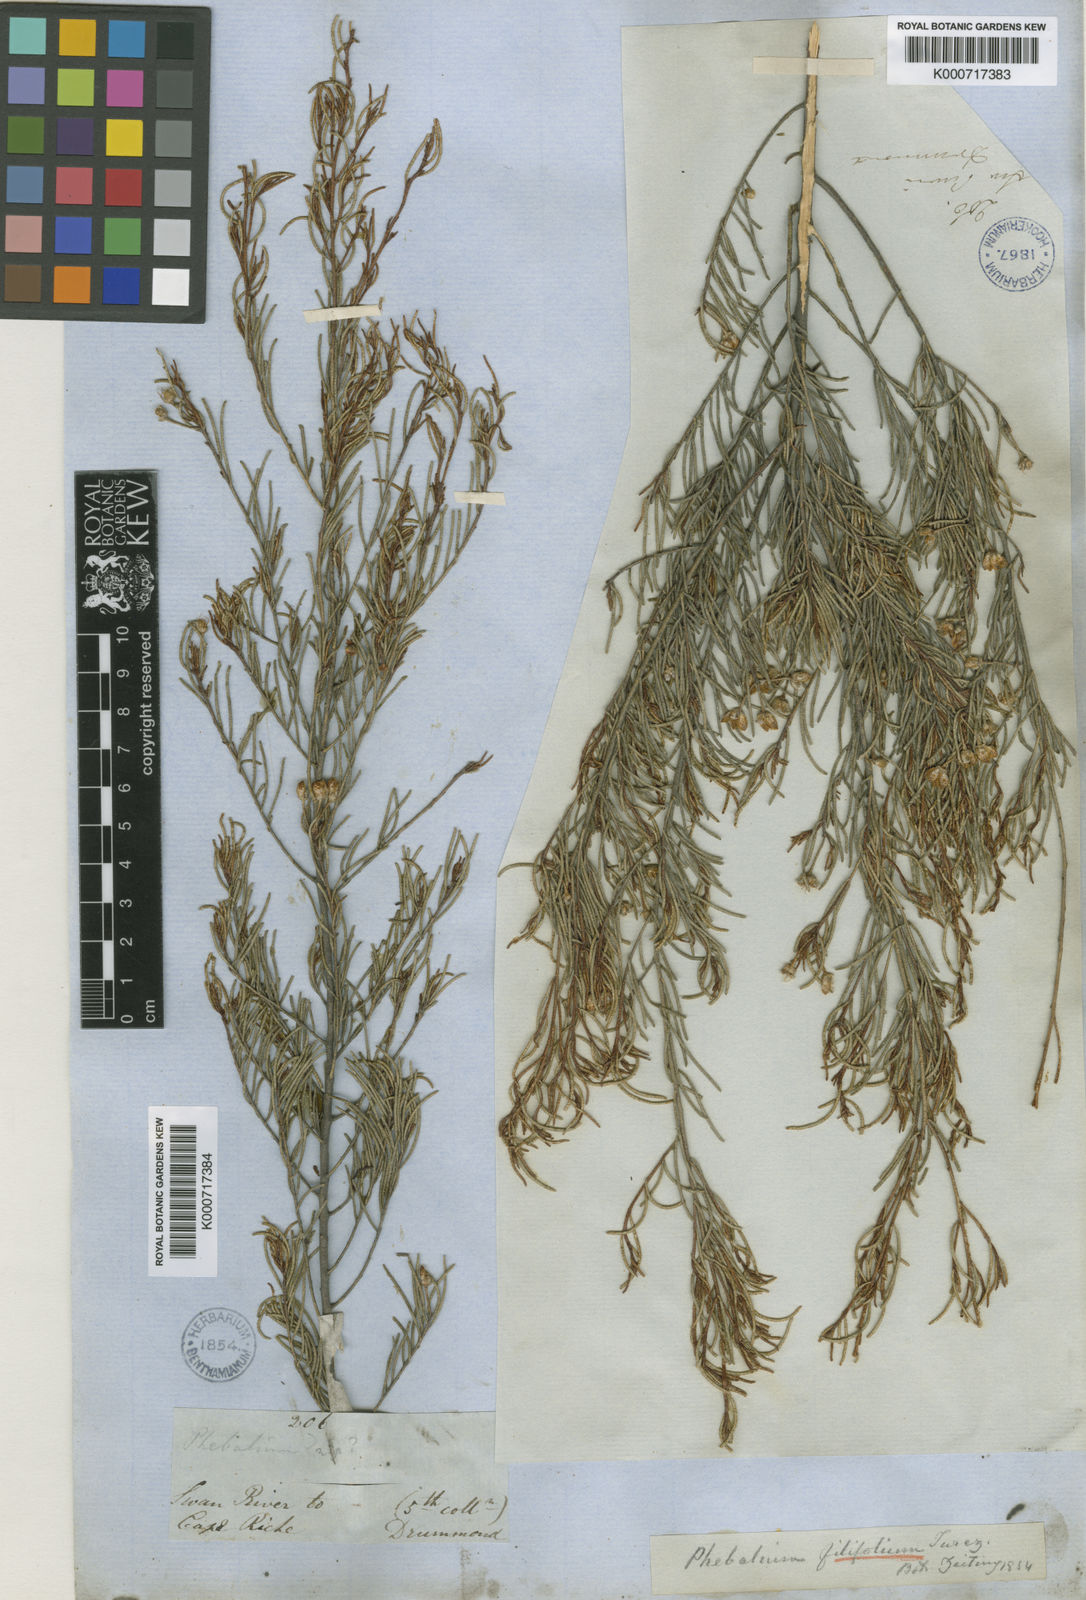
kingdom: Plantae
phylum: Tracheophyta
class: Magnoliopsida
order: Sapindales
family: Rutaceae
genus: Phebalium
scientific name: Phebalium filifolium
